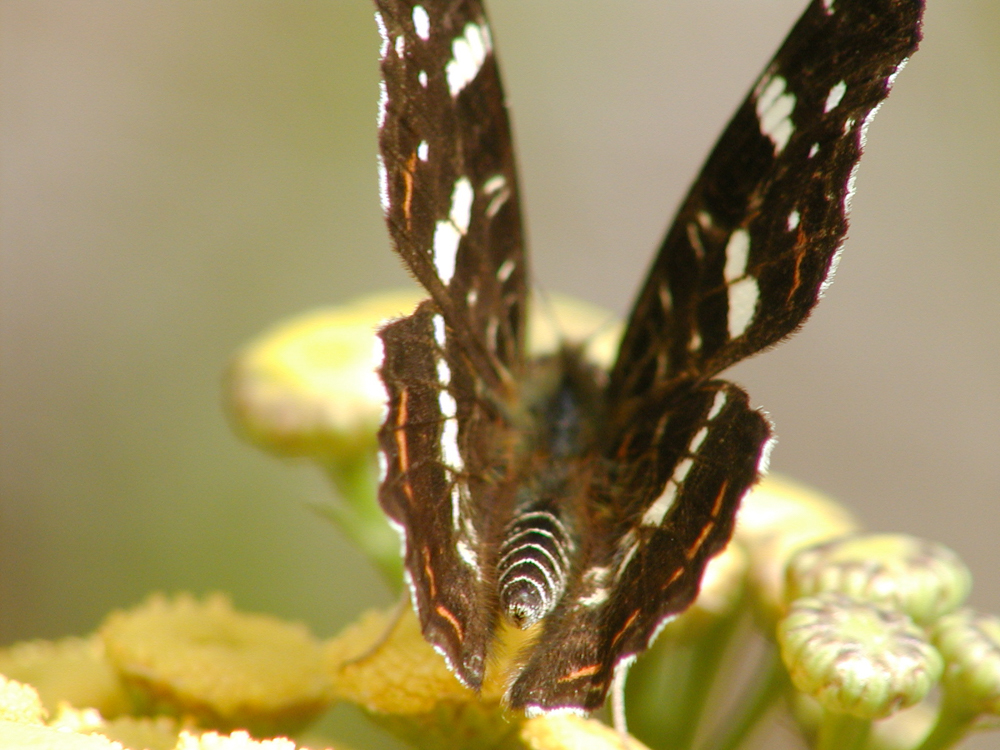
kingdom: Animalia
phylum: Arthropoda
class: Insecta
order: Lepidoptera
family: Nymphalidae
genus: Araschnia
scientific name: Araschnia levana
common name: Map butterfly
